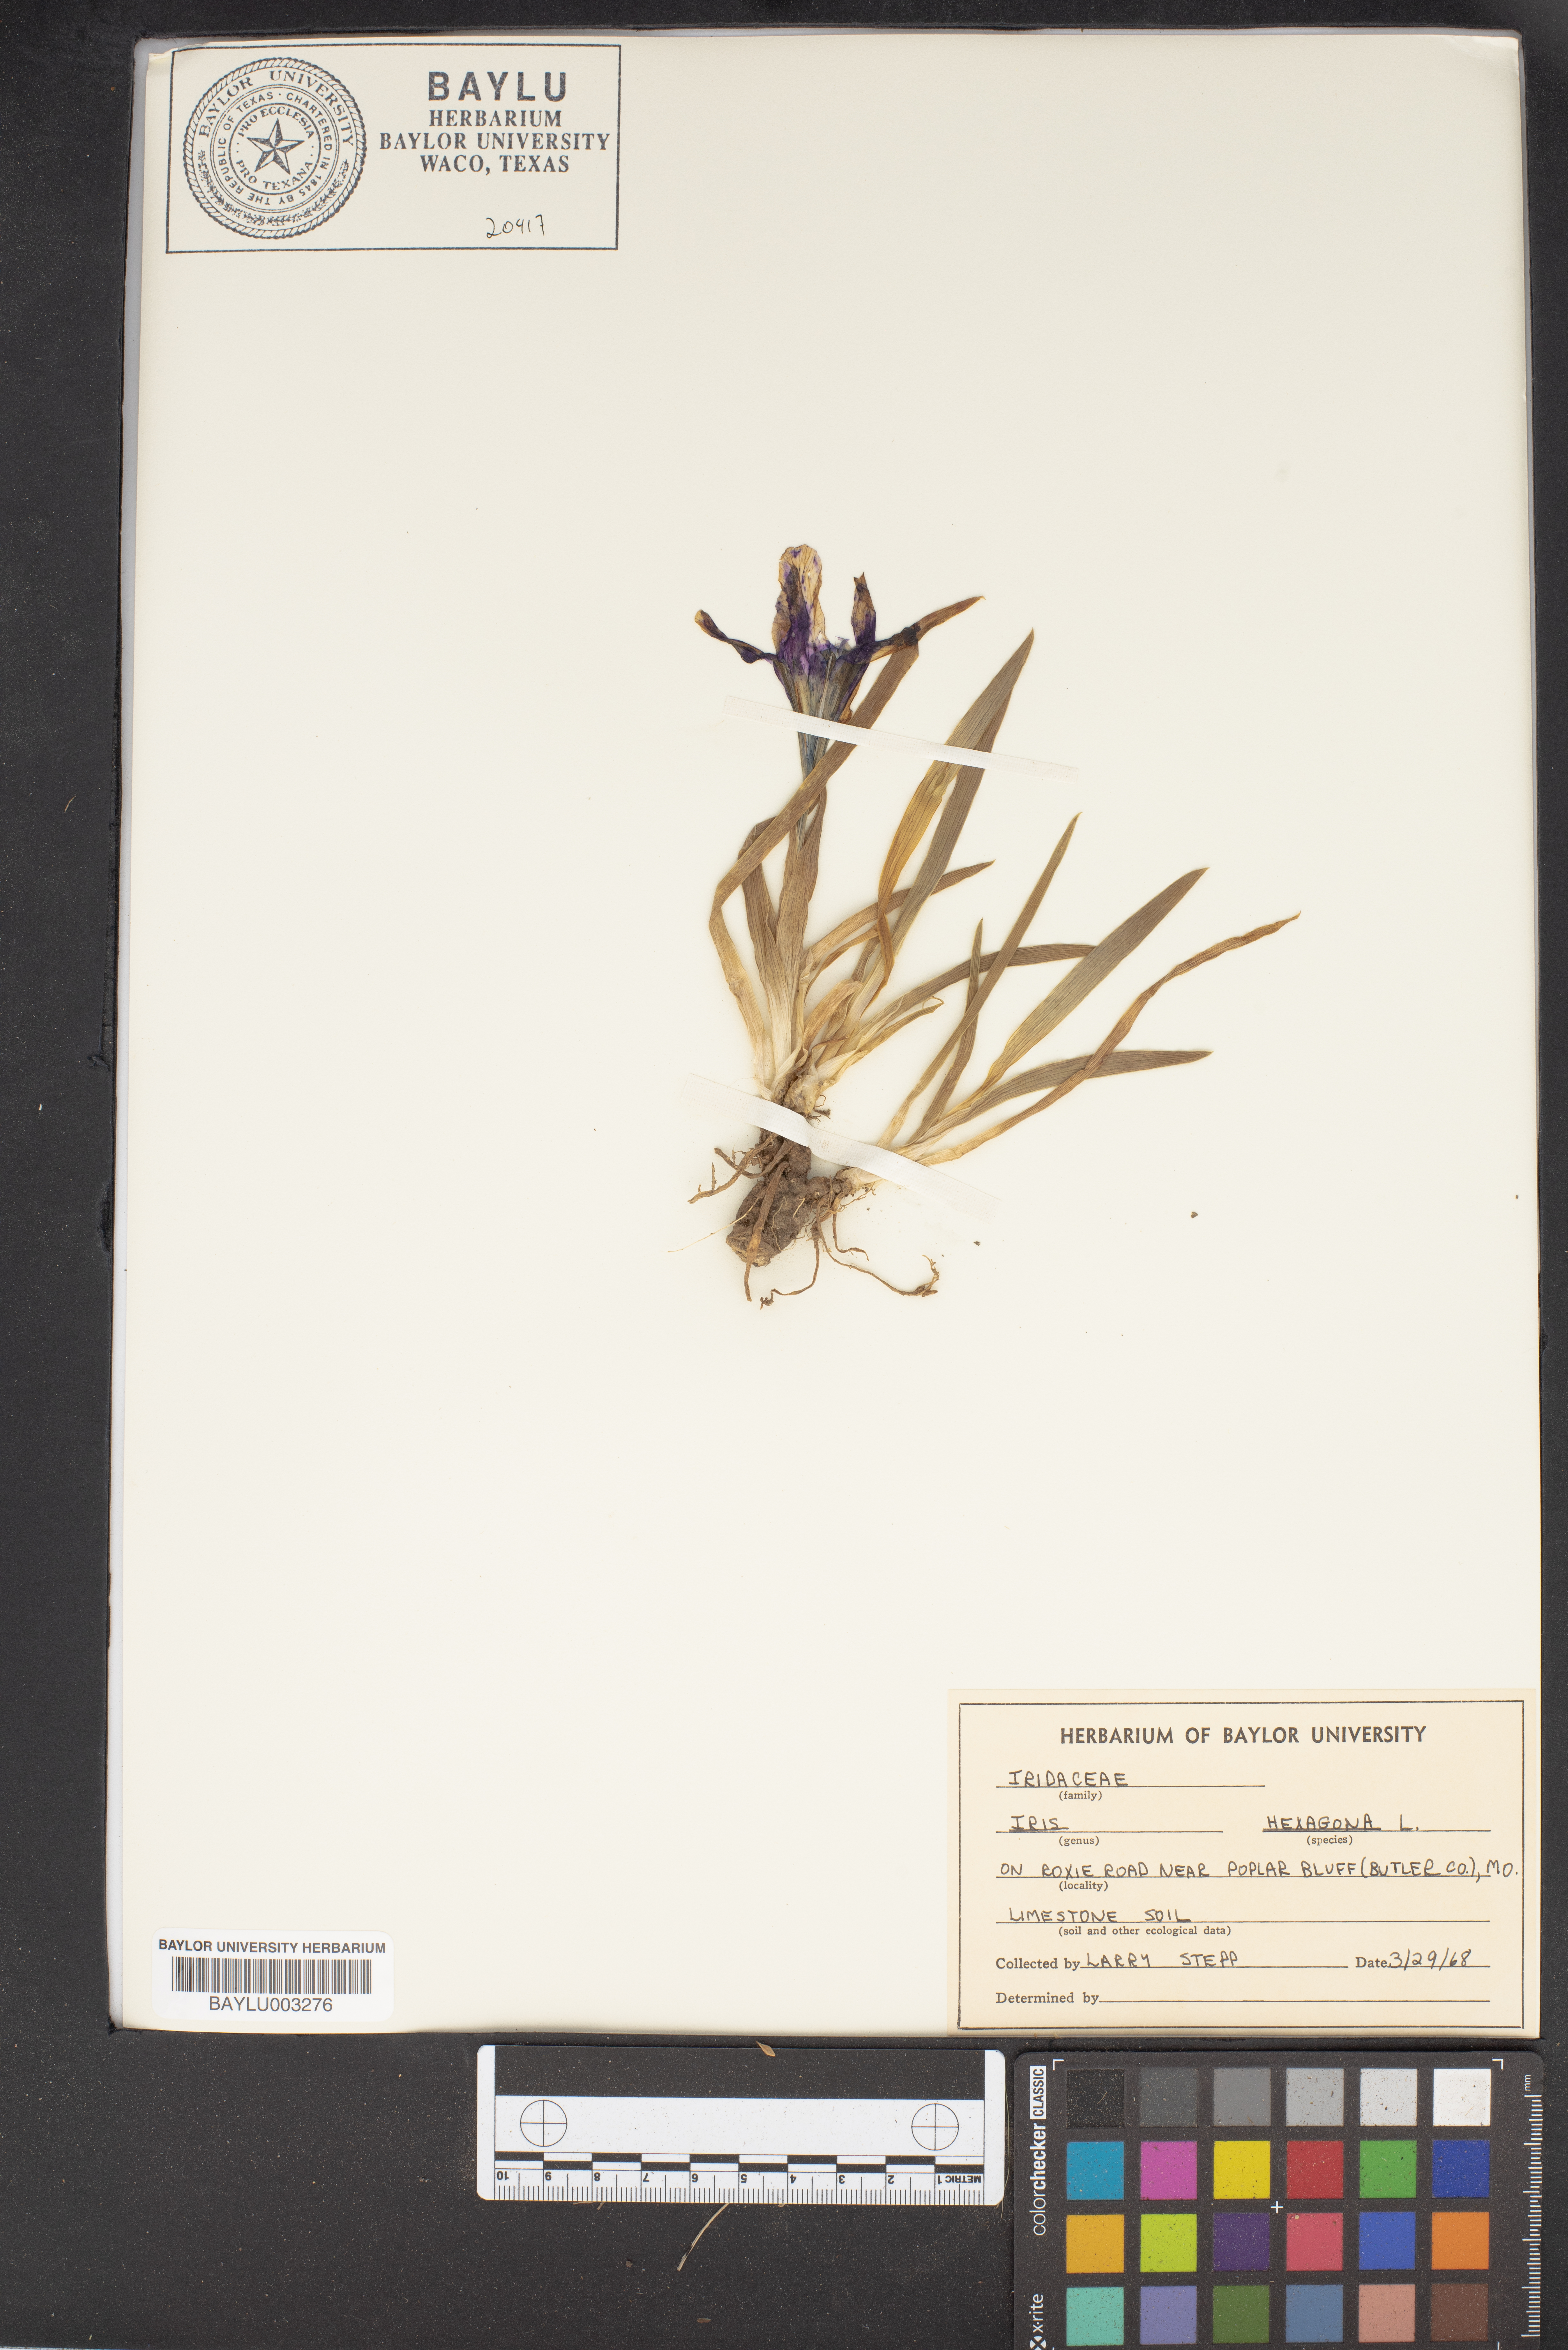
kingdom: Plantae
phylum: Tracheophyta
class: Liliopsida
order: Asparagales
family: Iridaceae
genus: Iris
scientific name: Iris hexagona
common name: Carolina iris
